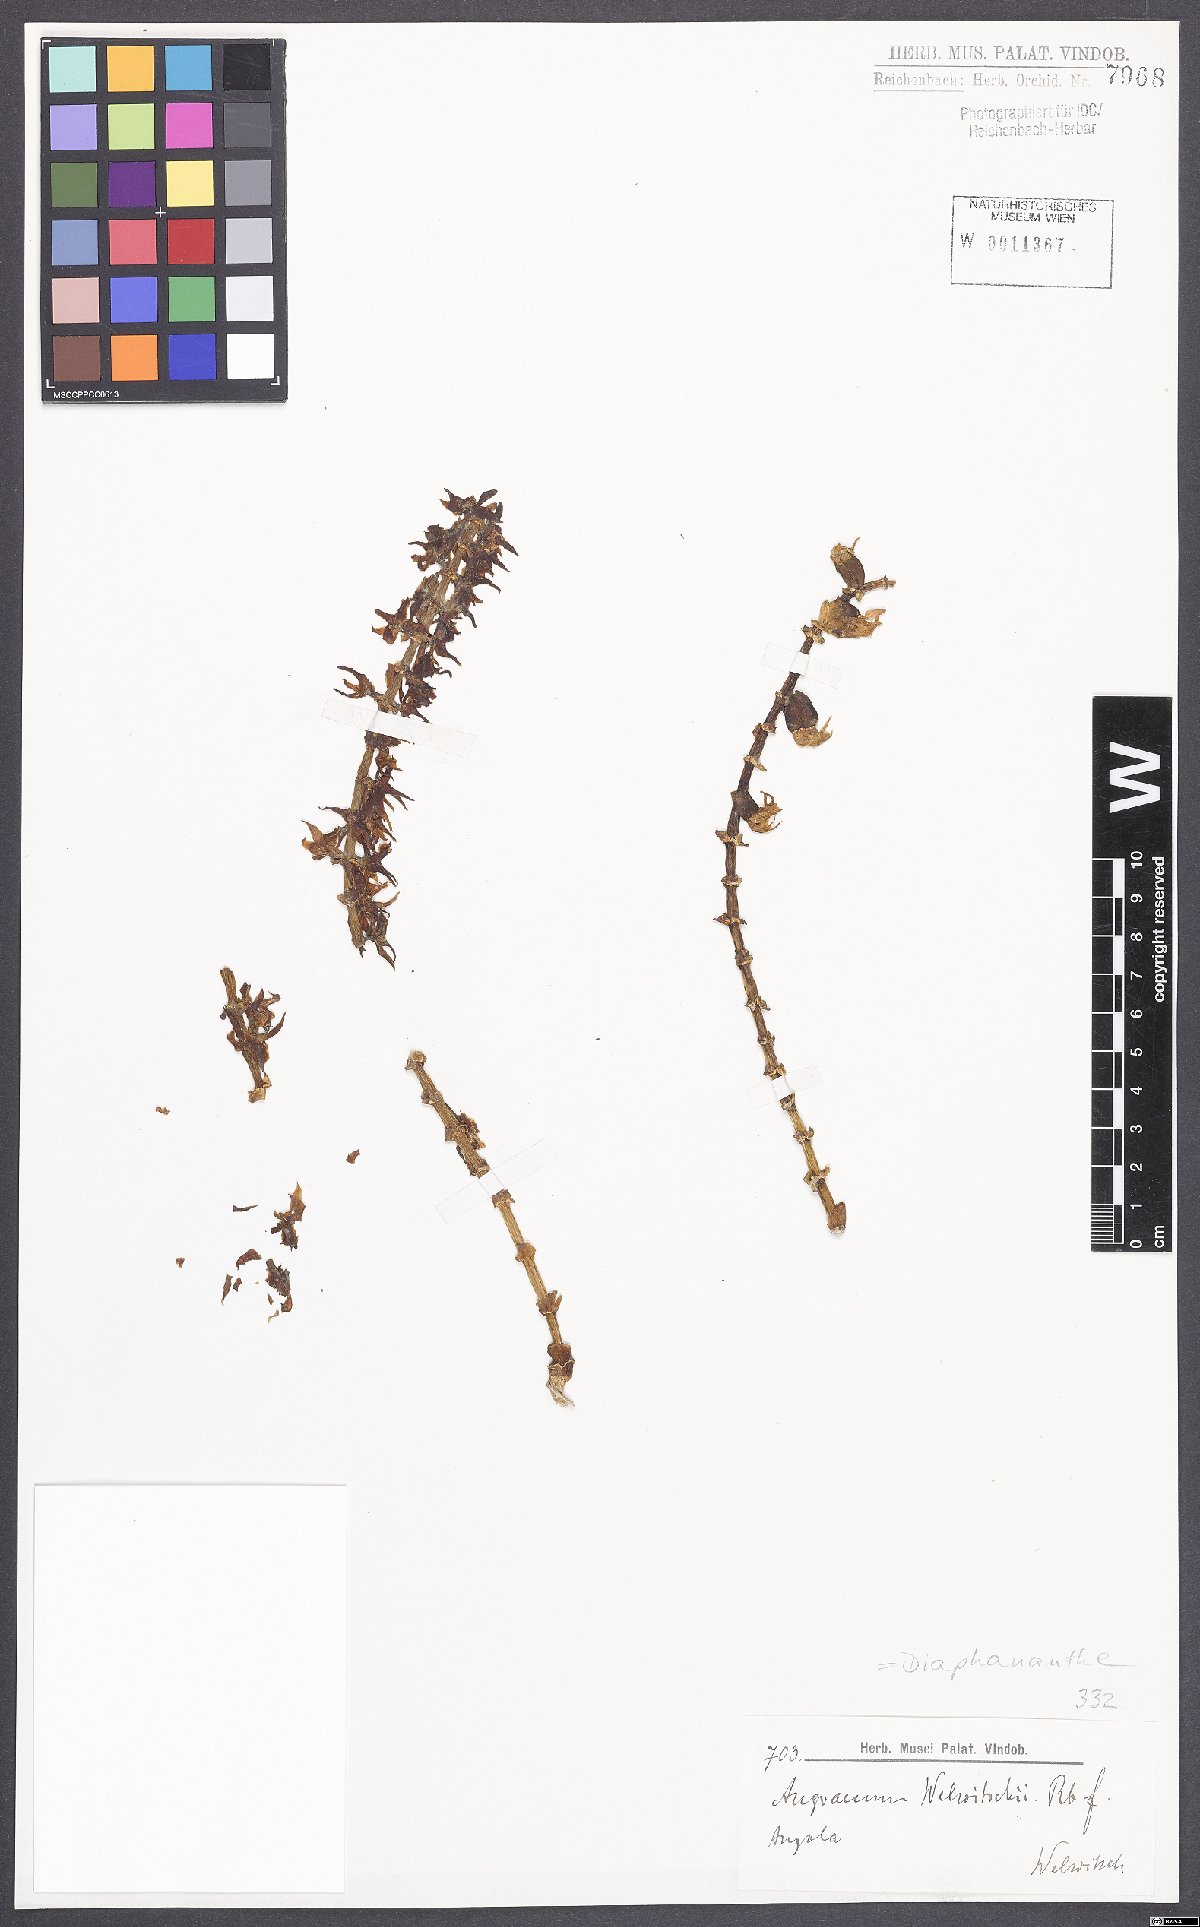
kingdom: Plantae
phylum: Tracheophyta
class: Liliopsida
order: Asparagales
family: Orchidaceae
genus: Diaphananthe
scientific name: Diaphananthe welwitschii
